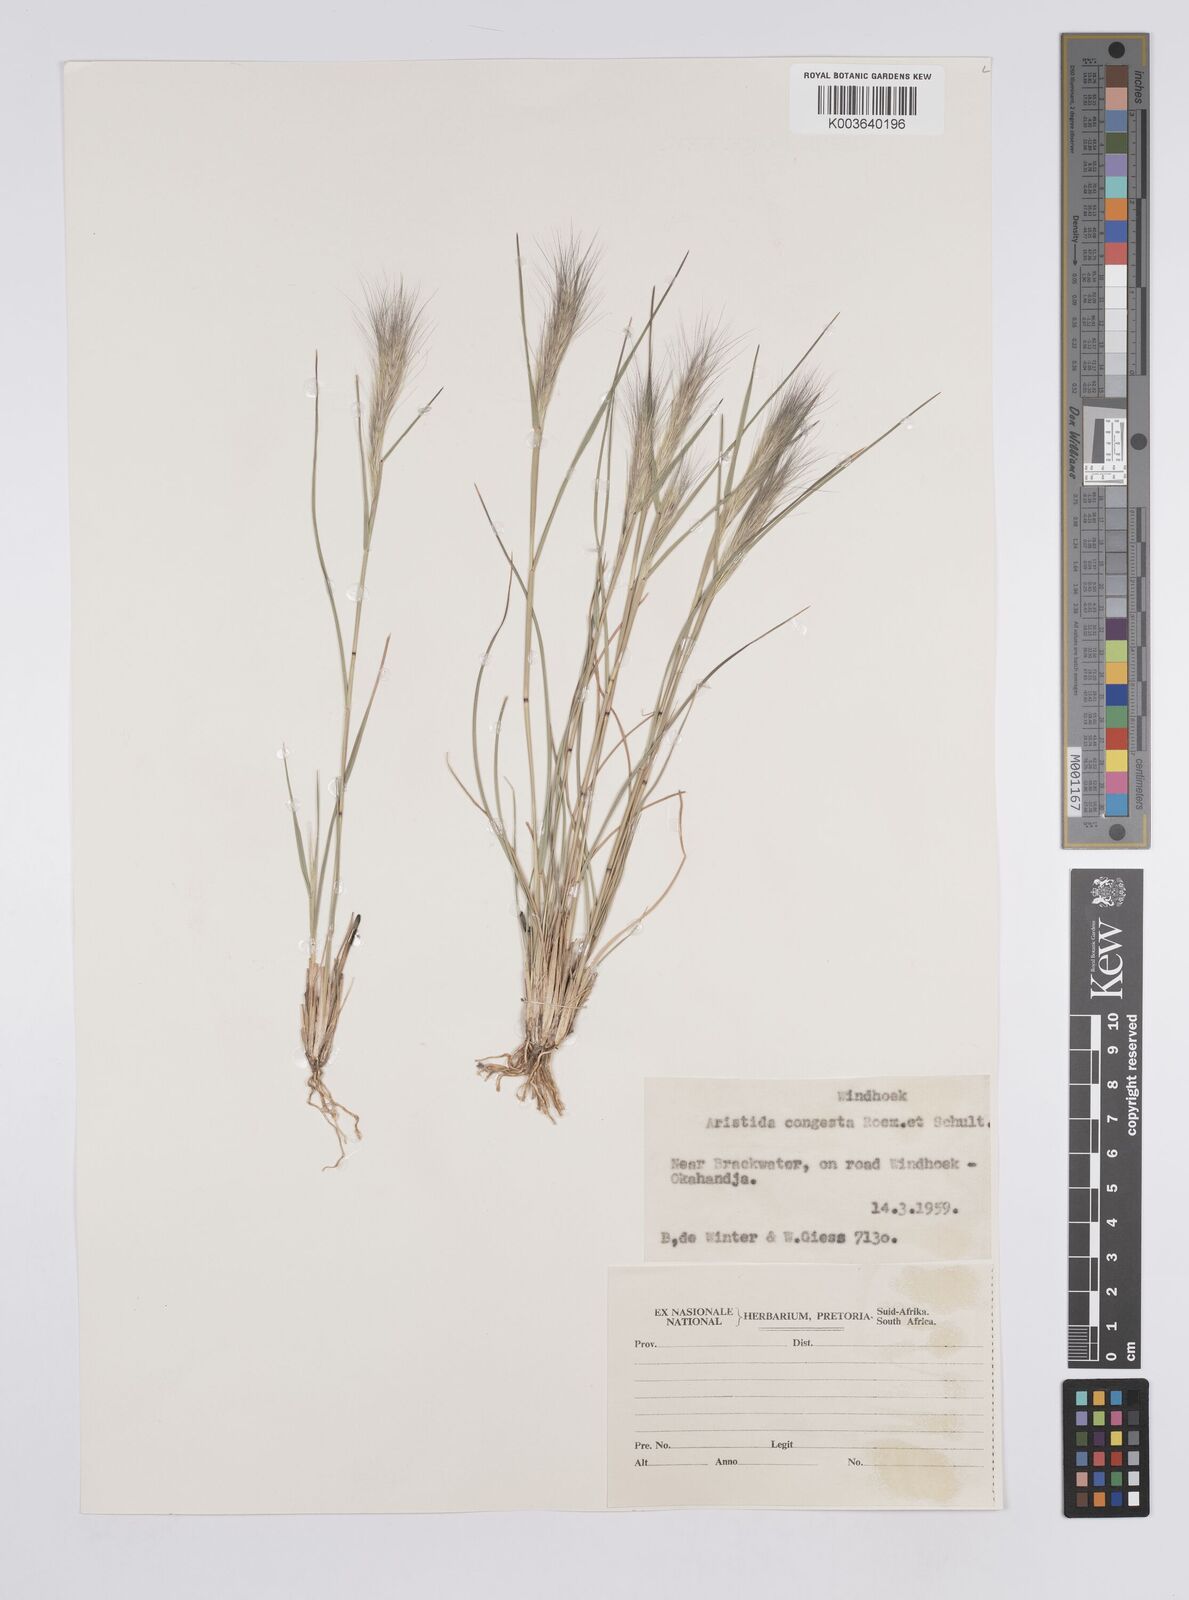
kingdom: Plantae
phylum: Tracheophyta
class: Liliopsida
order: Poales
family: Poaceae
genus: Aristida
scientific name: Aristida congesta
